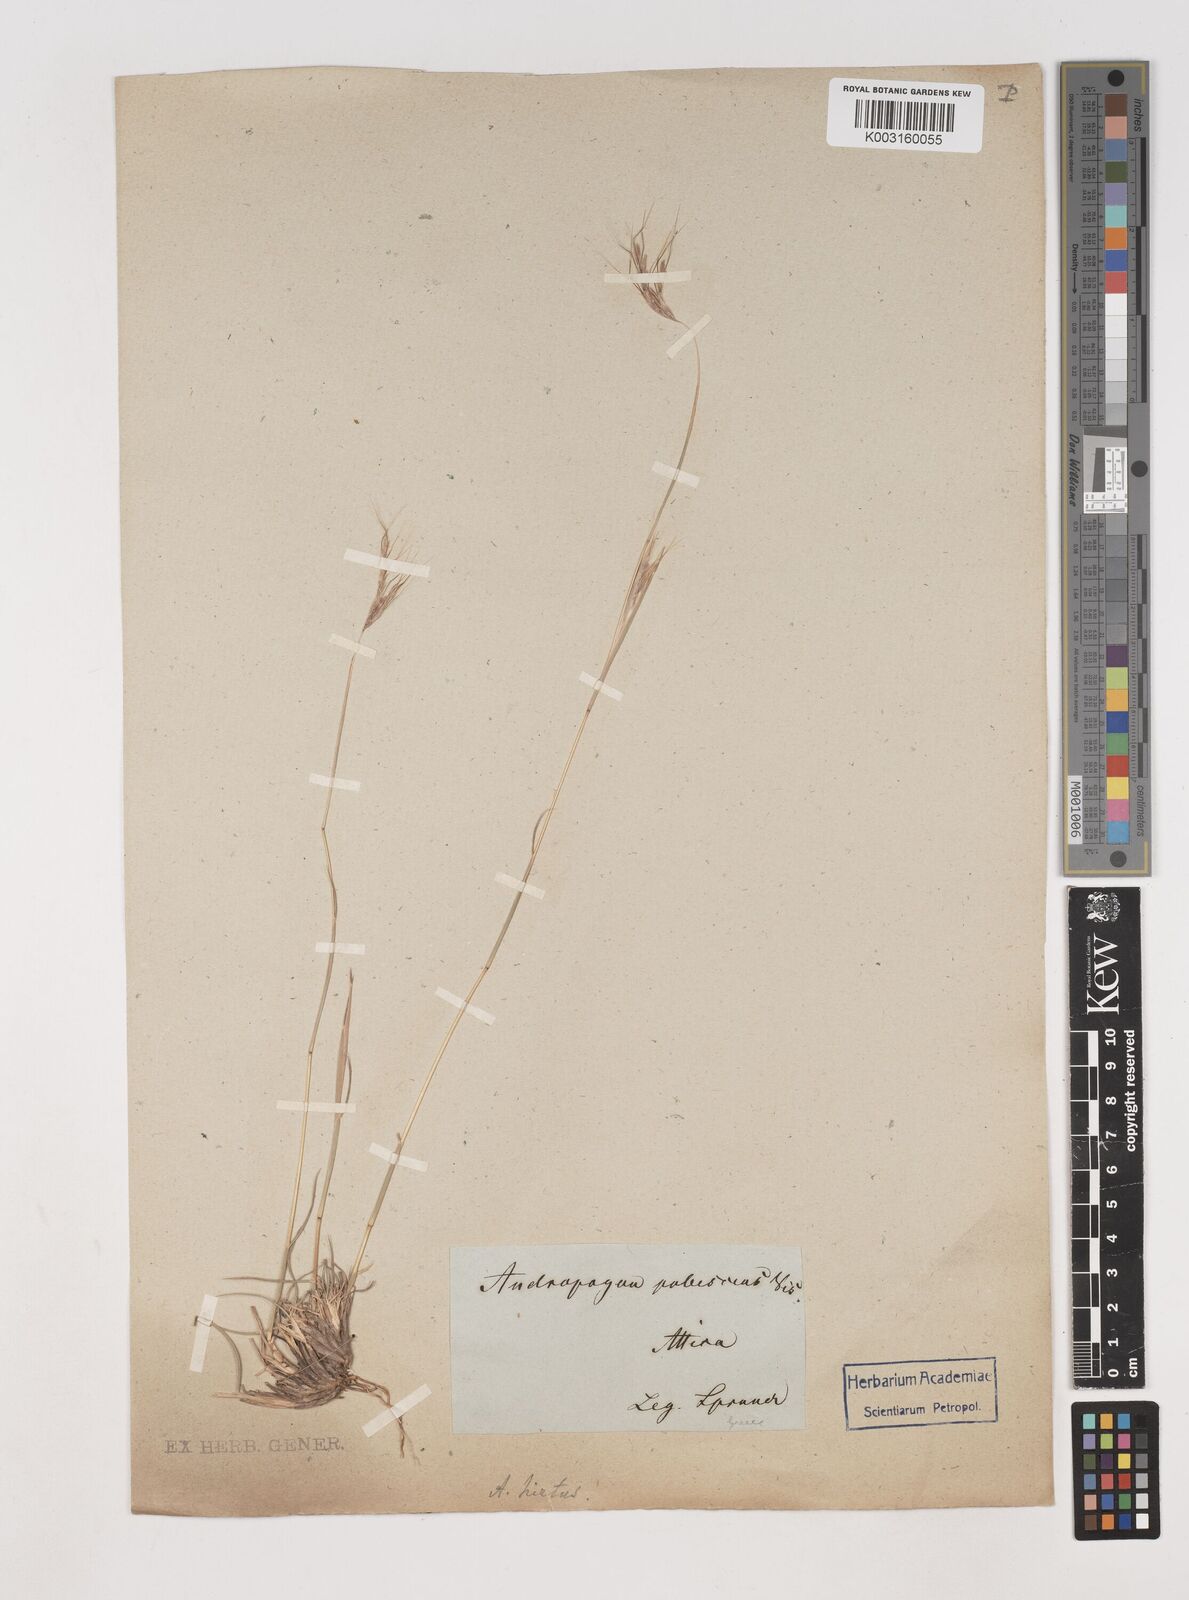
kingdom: Plantae
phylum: Tracheophyta
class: Liliopsida
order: Poales
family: Poaceae
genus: Hyparrhenia
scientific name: Hyparrhenia hirta
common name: Thatching grass
